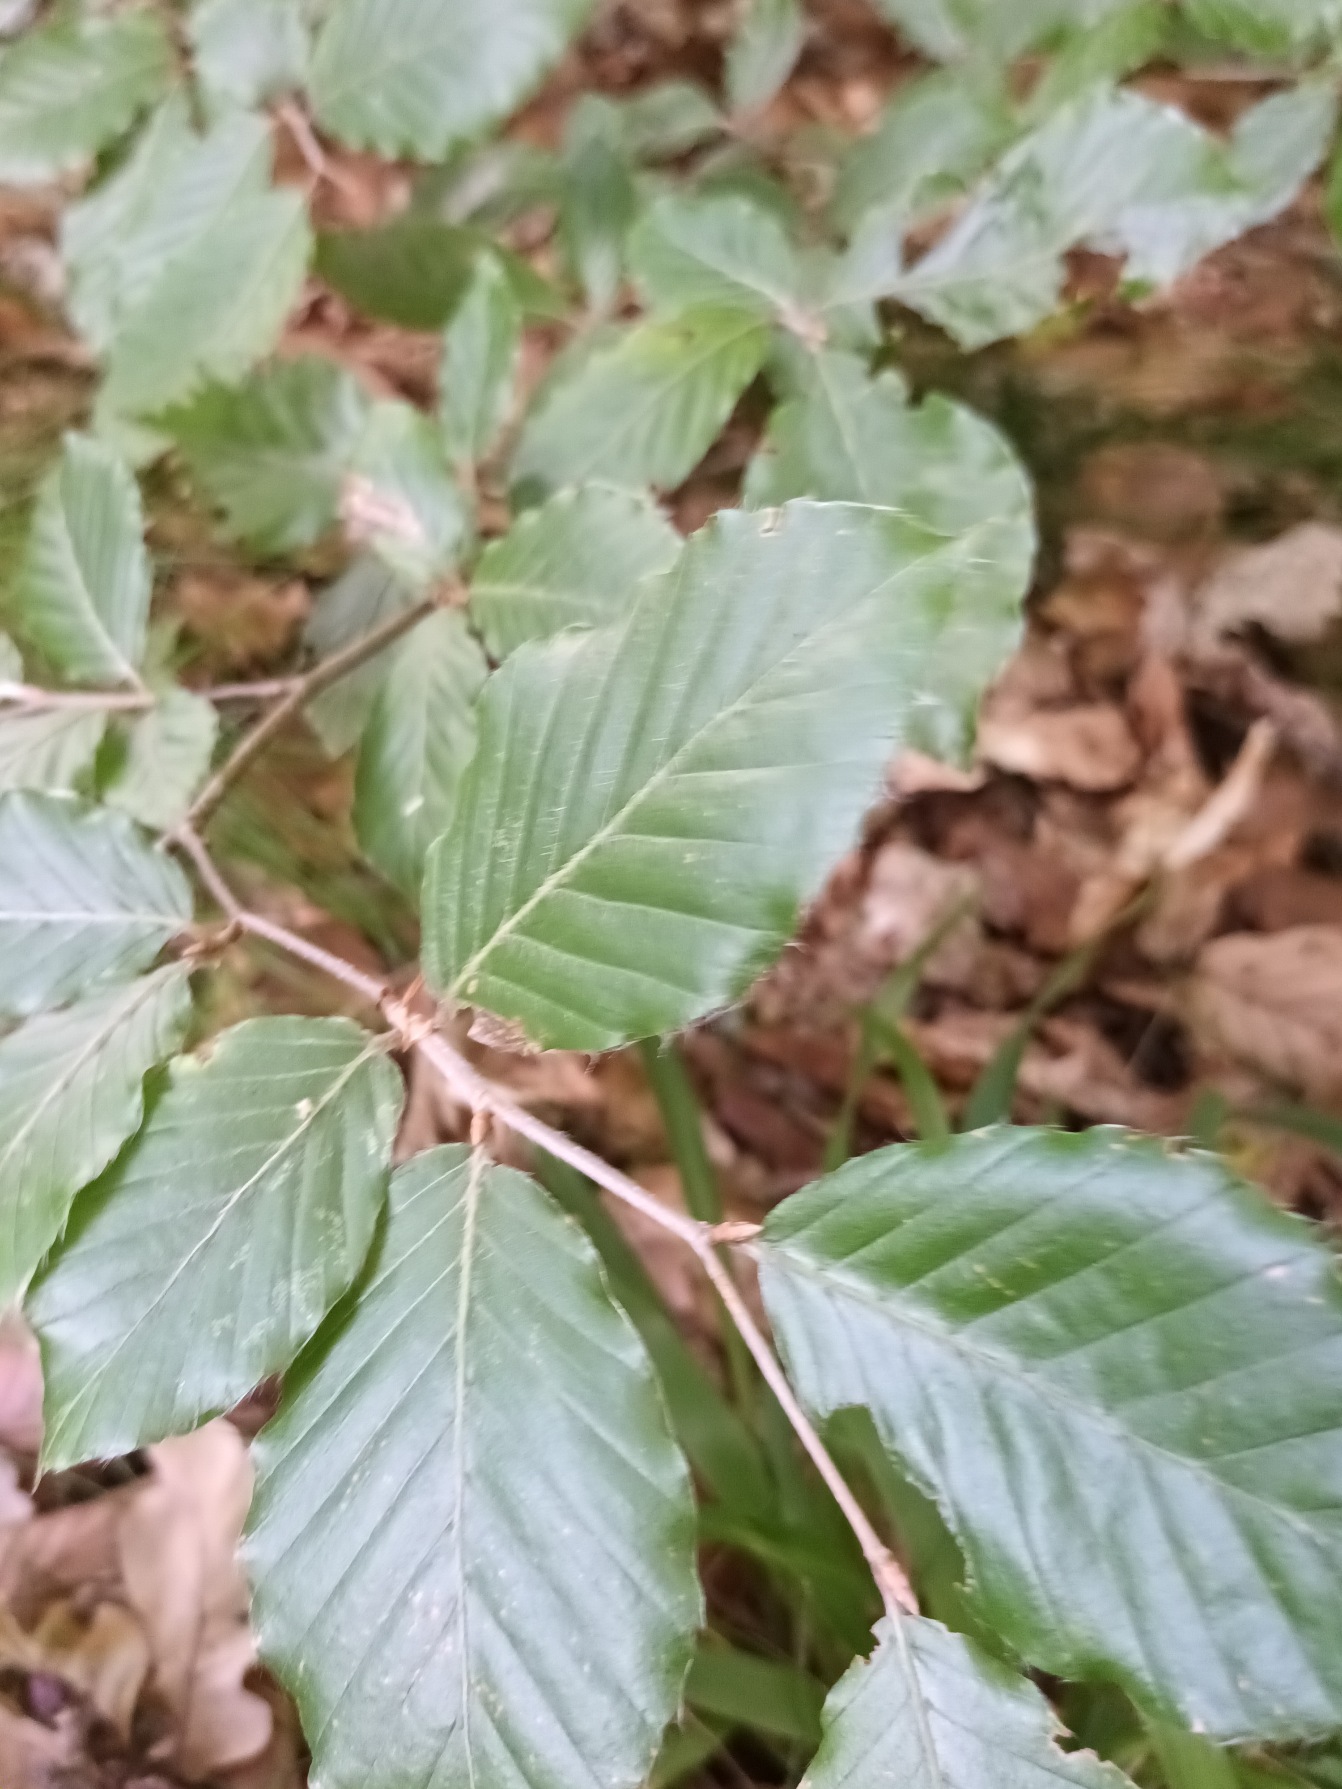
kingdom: Plantae
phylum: Tracheophyta
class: Magnoliopsida
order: Fagales
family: Fagaceae
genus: Fagus
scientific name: Fagus sylvatica
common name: Bøg
